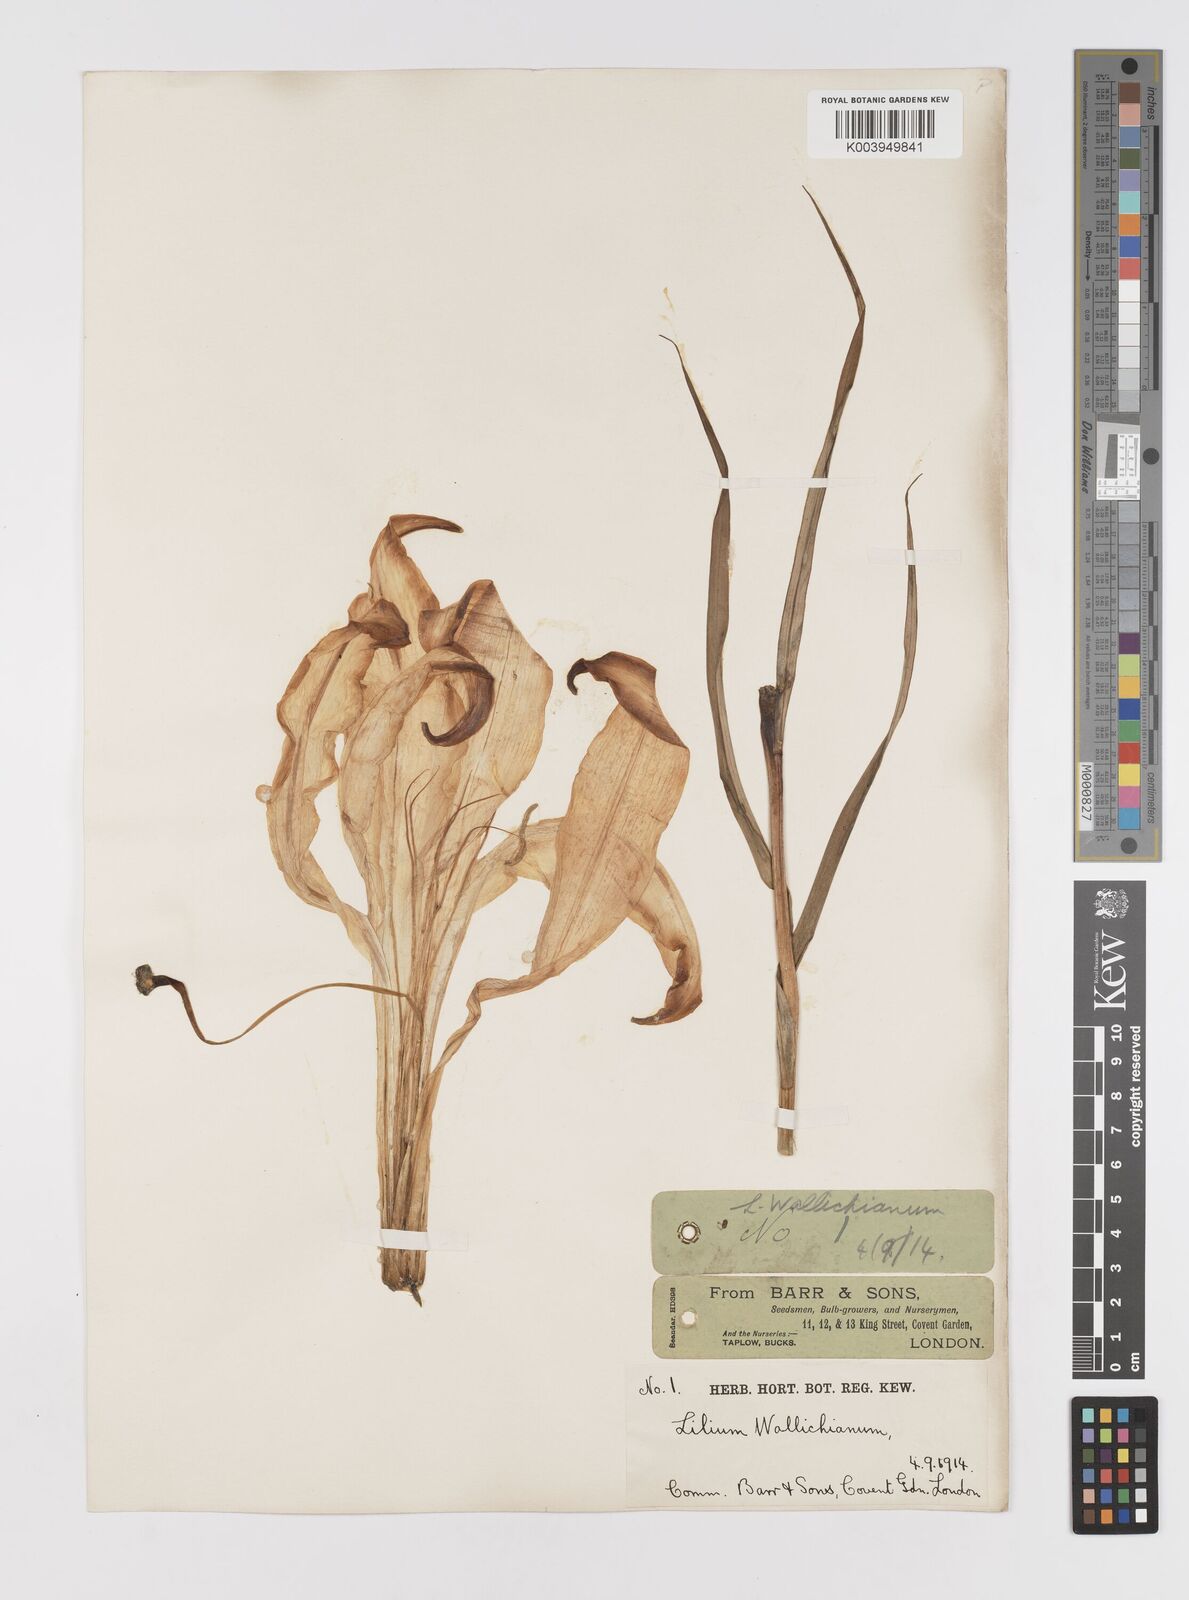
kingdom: Plantae
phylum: Tracheophyta
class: Liliopsida
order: Liliales
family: Liliaceae
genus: Lilium
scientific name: Lilium wallichianum
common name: Wallich's lily
